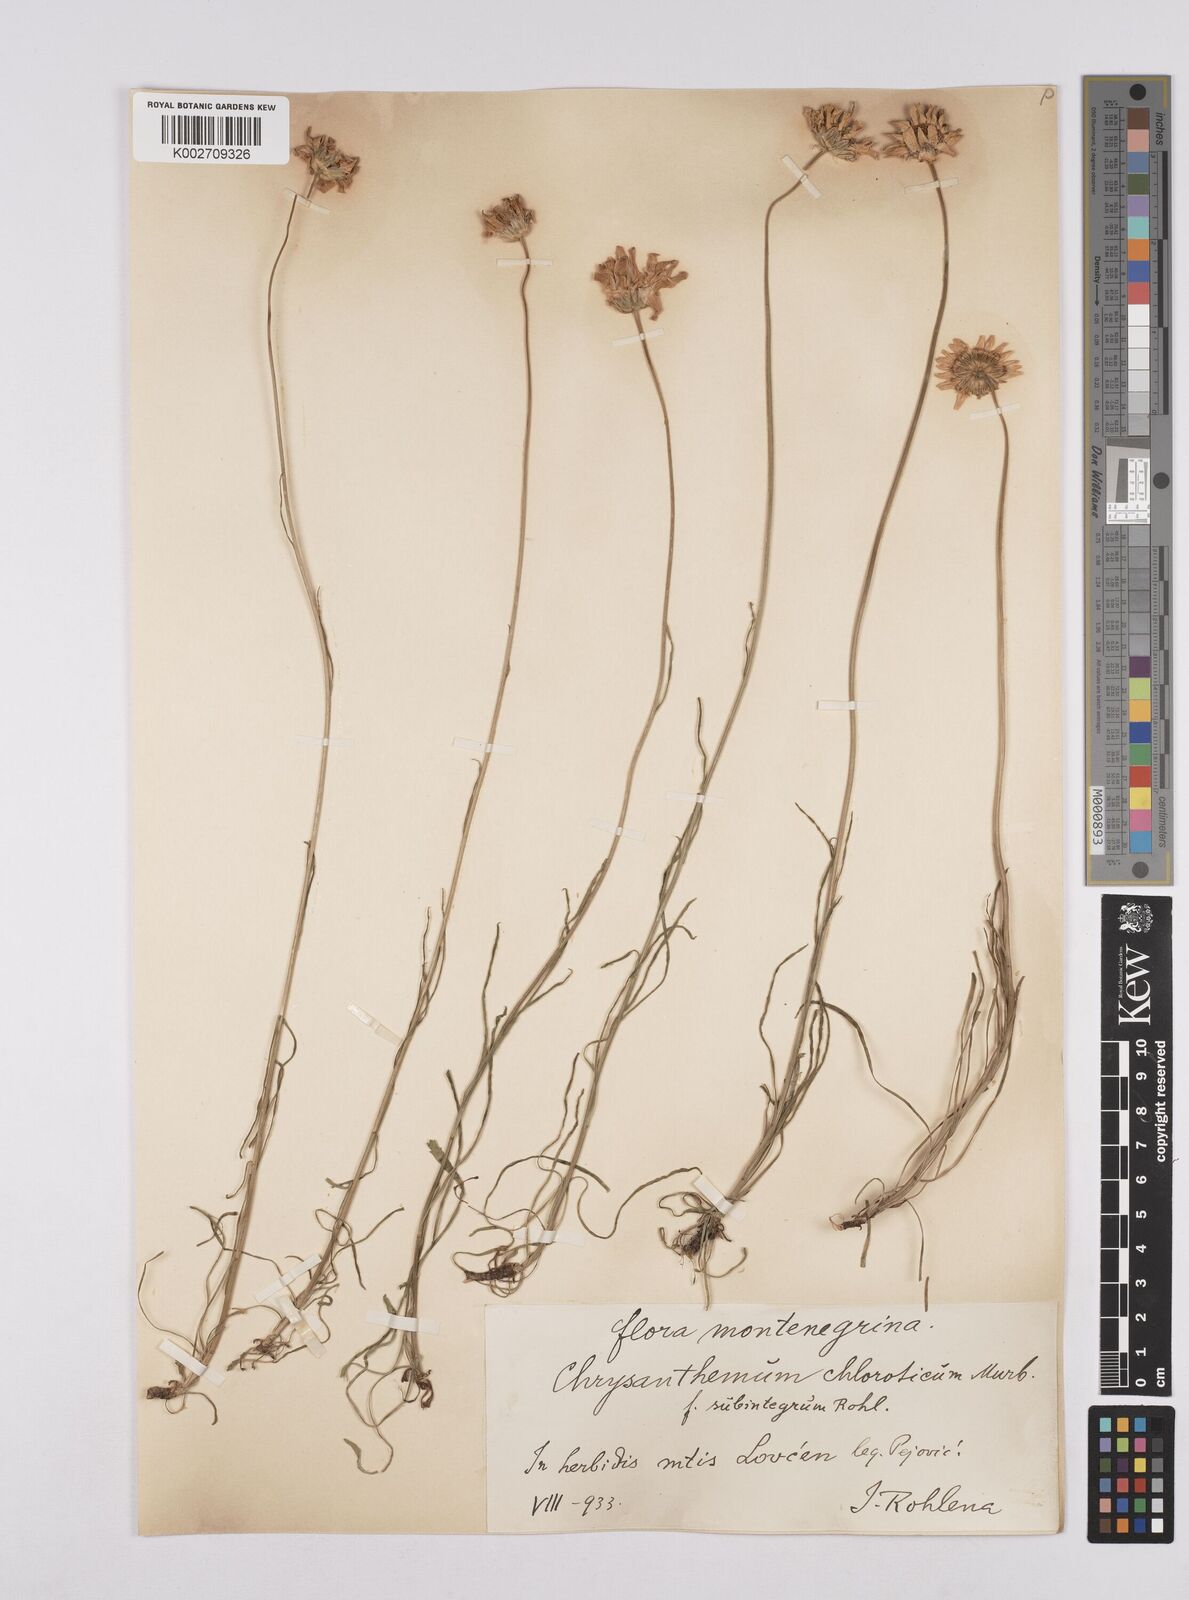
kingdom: Plantae
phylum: Tracheophyta
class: Magnoliopsida
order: Asterales
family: Asteraceae
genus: Leucanthemum
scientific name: Leucanthemum chloroticum
